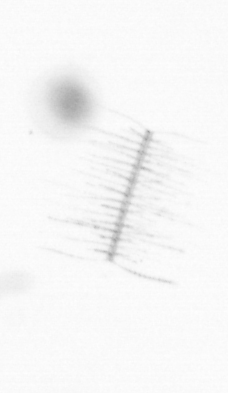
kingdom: Chromista
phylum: Ochrophyta
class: Bacillariophyceae
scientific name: Bacillariophyceae
